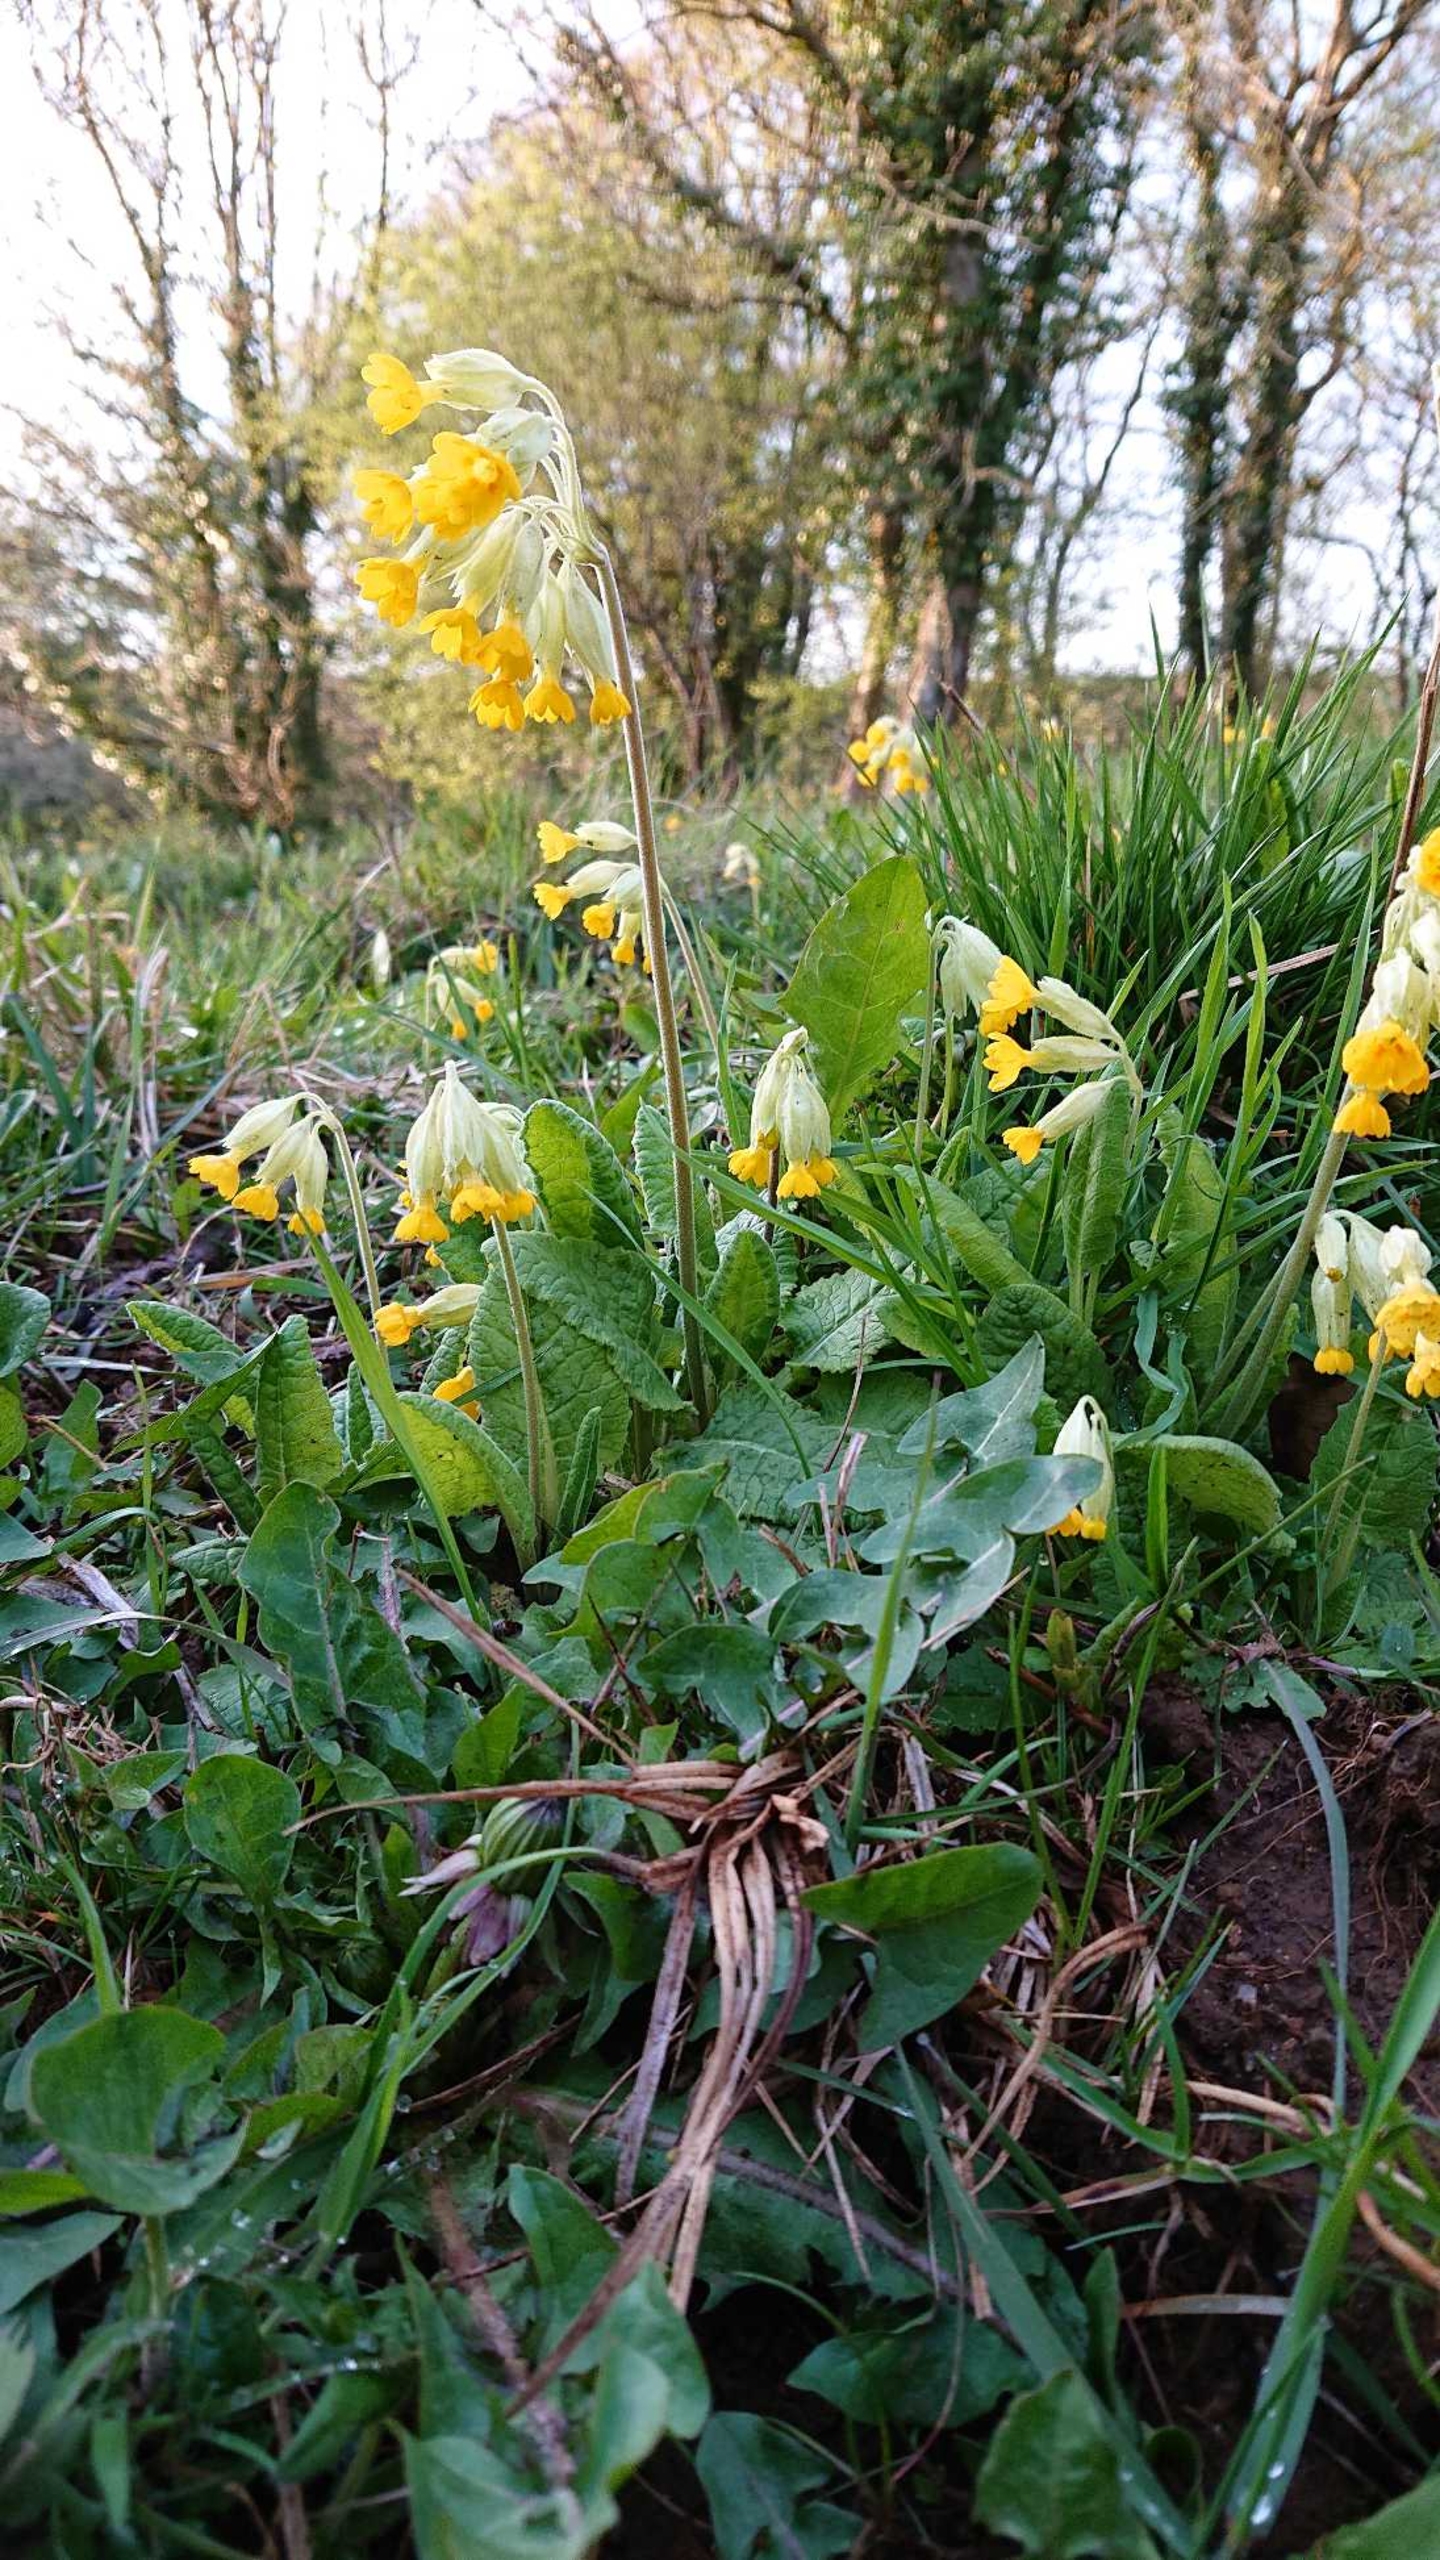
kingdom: Plantae
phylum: Tracheophyta
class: Magnoliopsida
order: Ericales
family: Primulaceae
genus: Primula
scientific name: Primula veris
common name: Hulkravet kodriver
